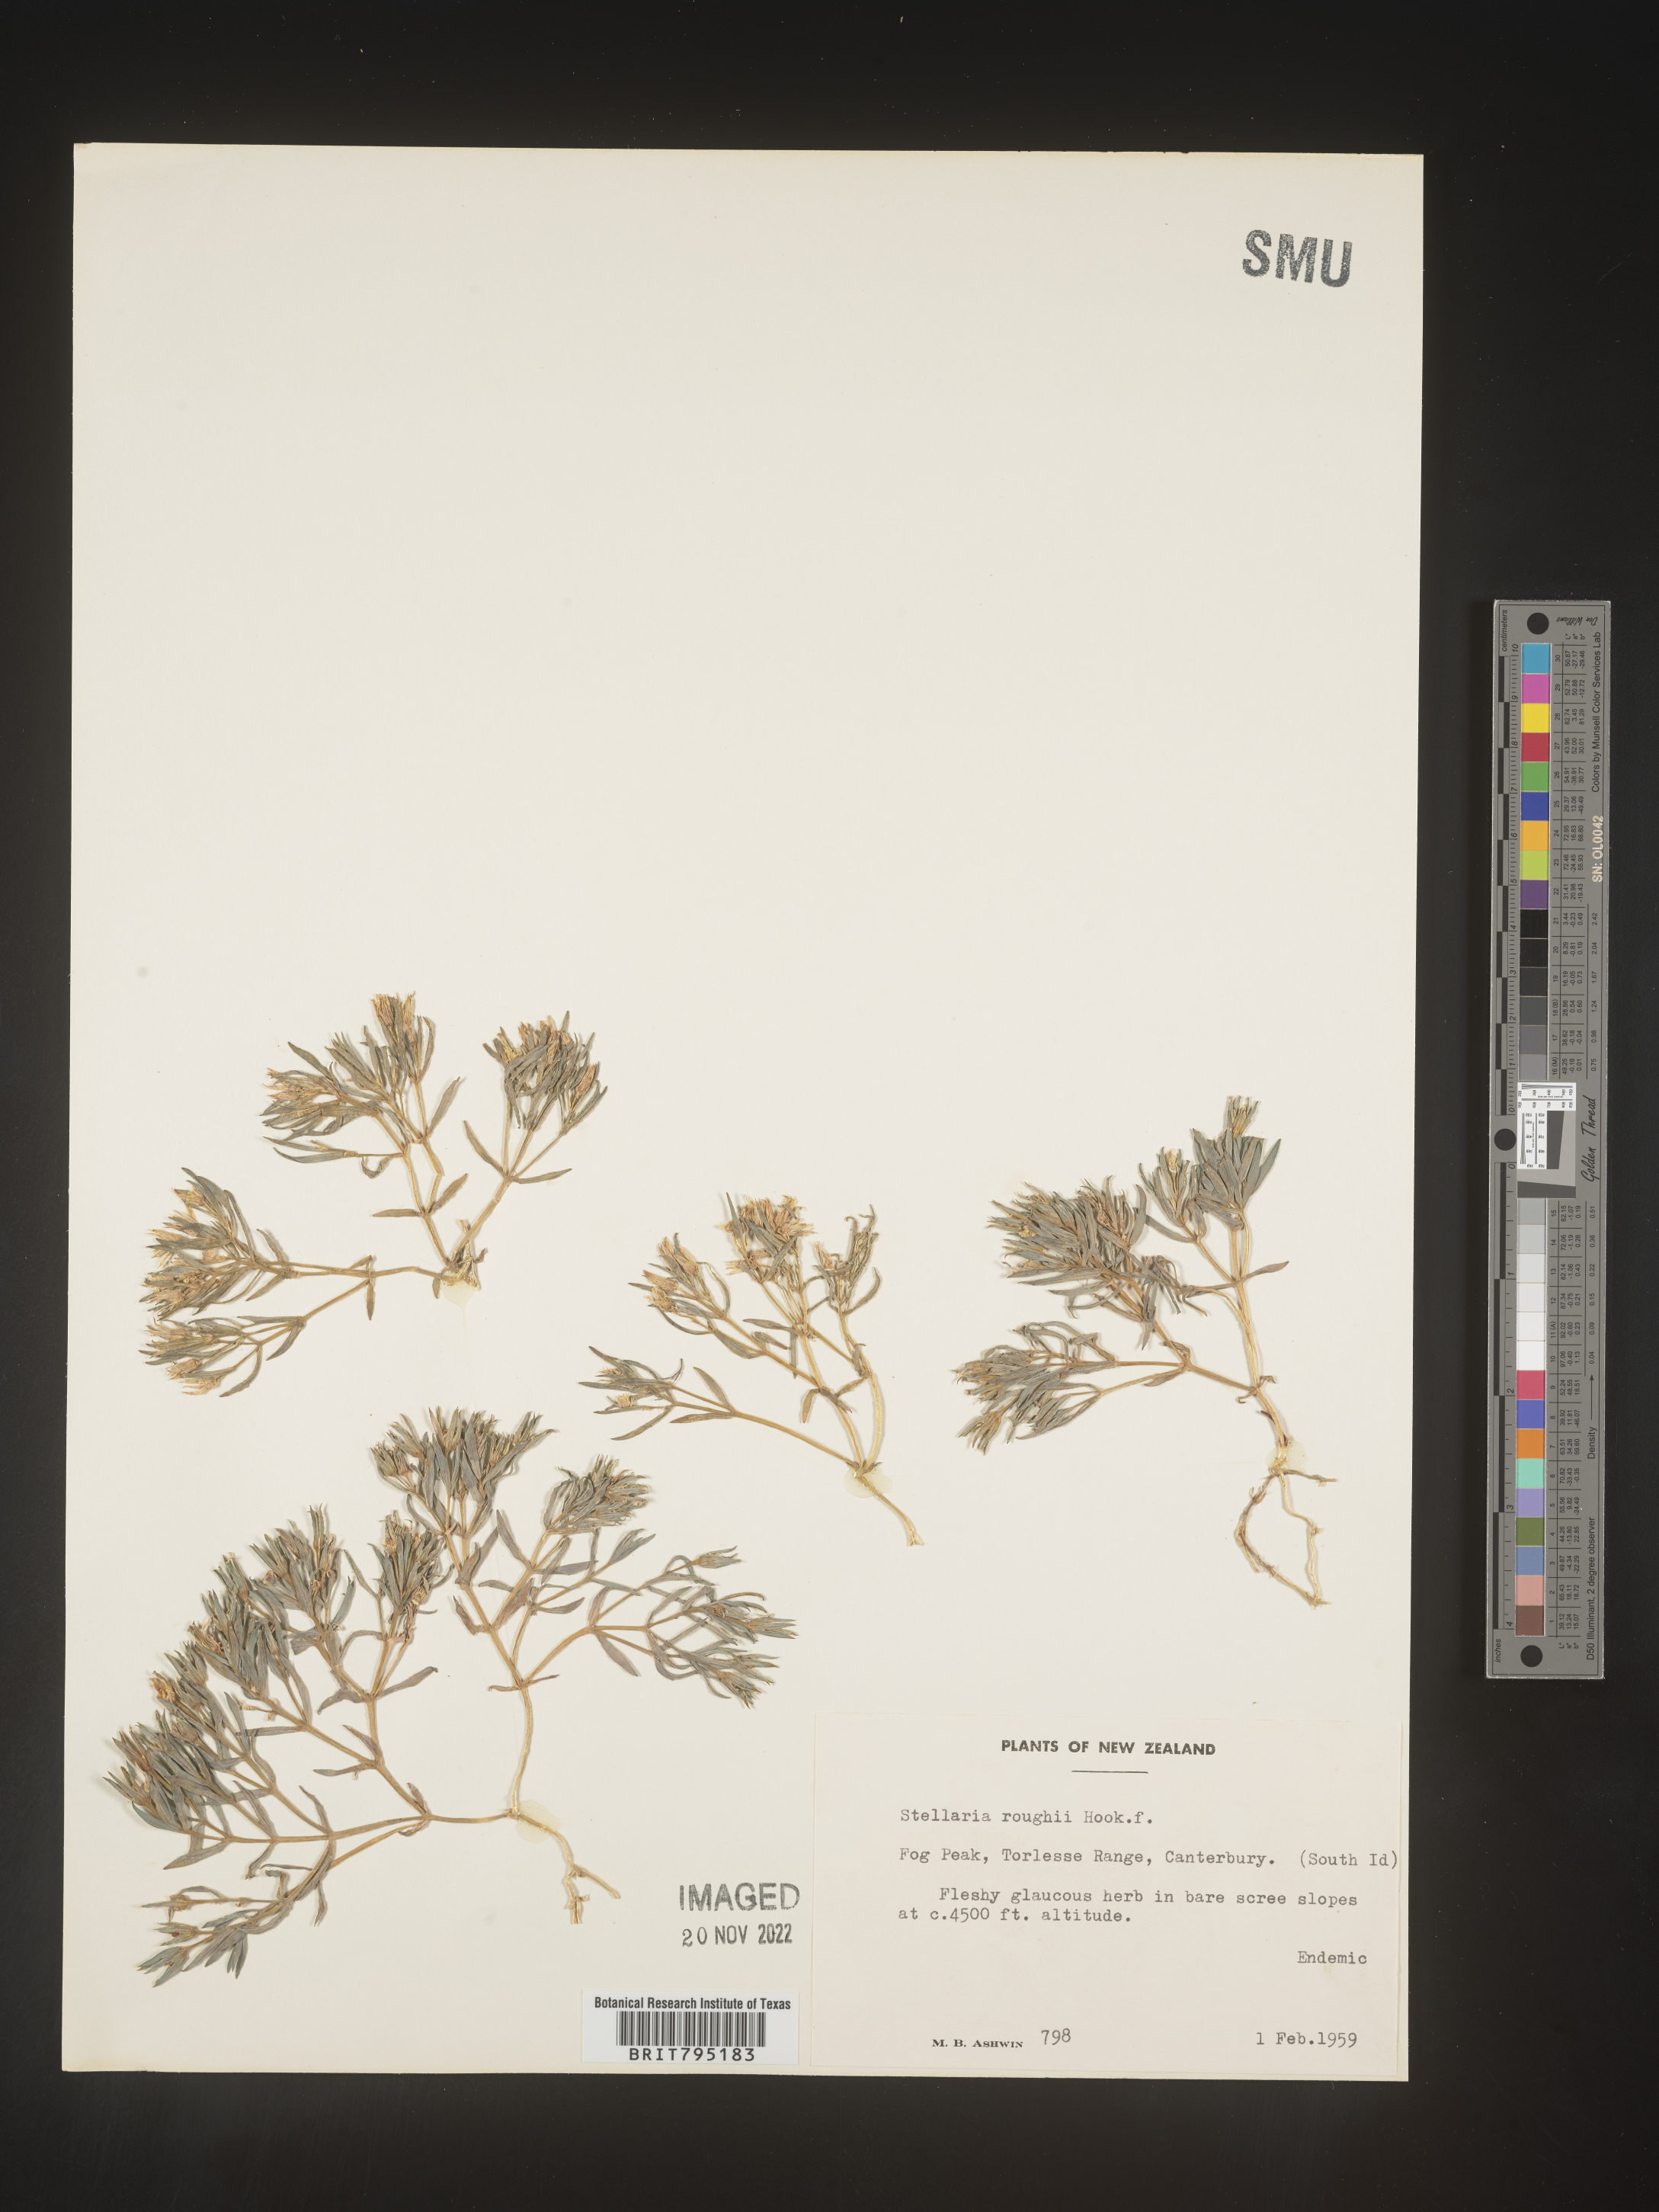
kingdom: Plantae
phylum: Tracheophyta
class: Magnoliopsida
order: Caryophyllales
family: Caryophyllaceae
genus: Stellaria
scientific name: Stellaria
